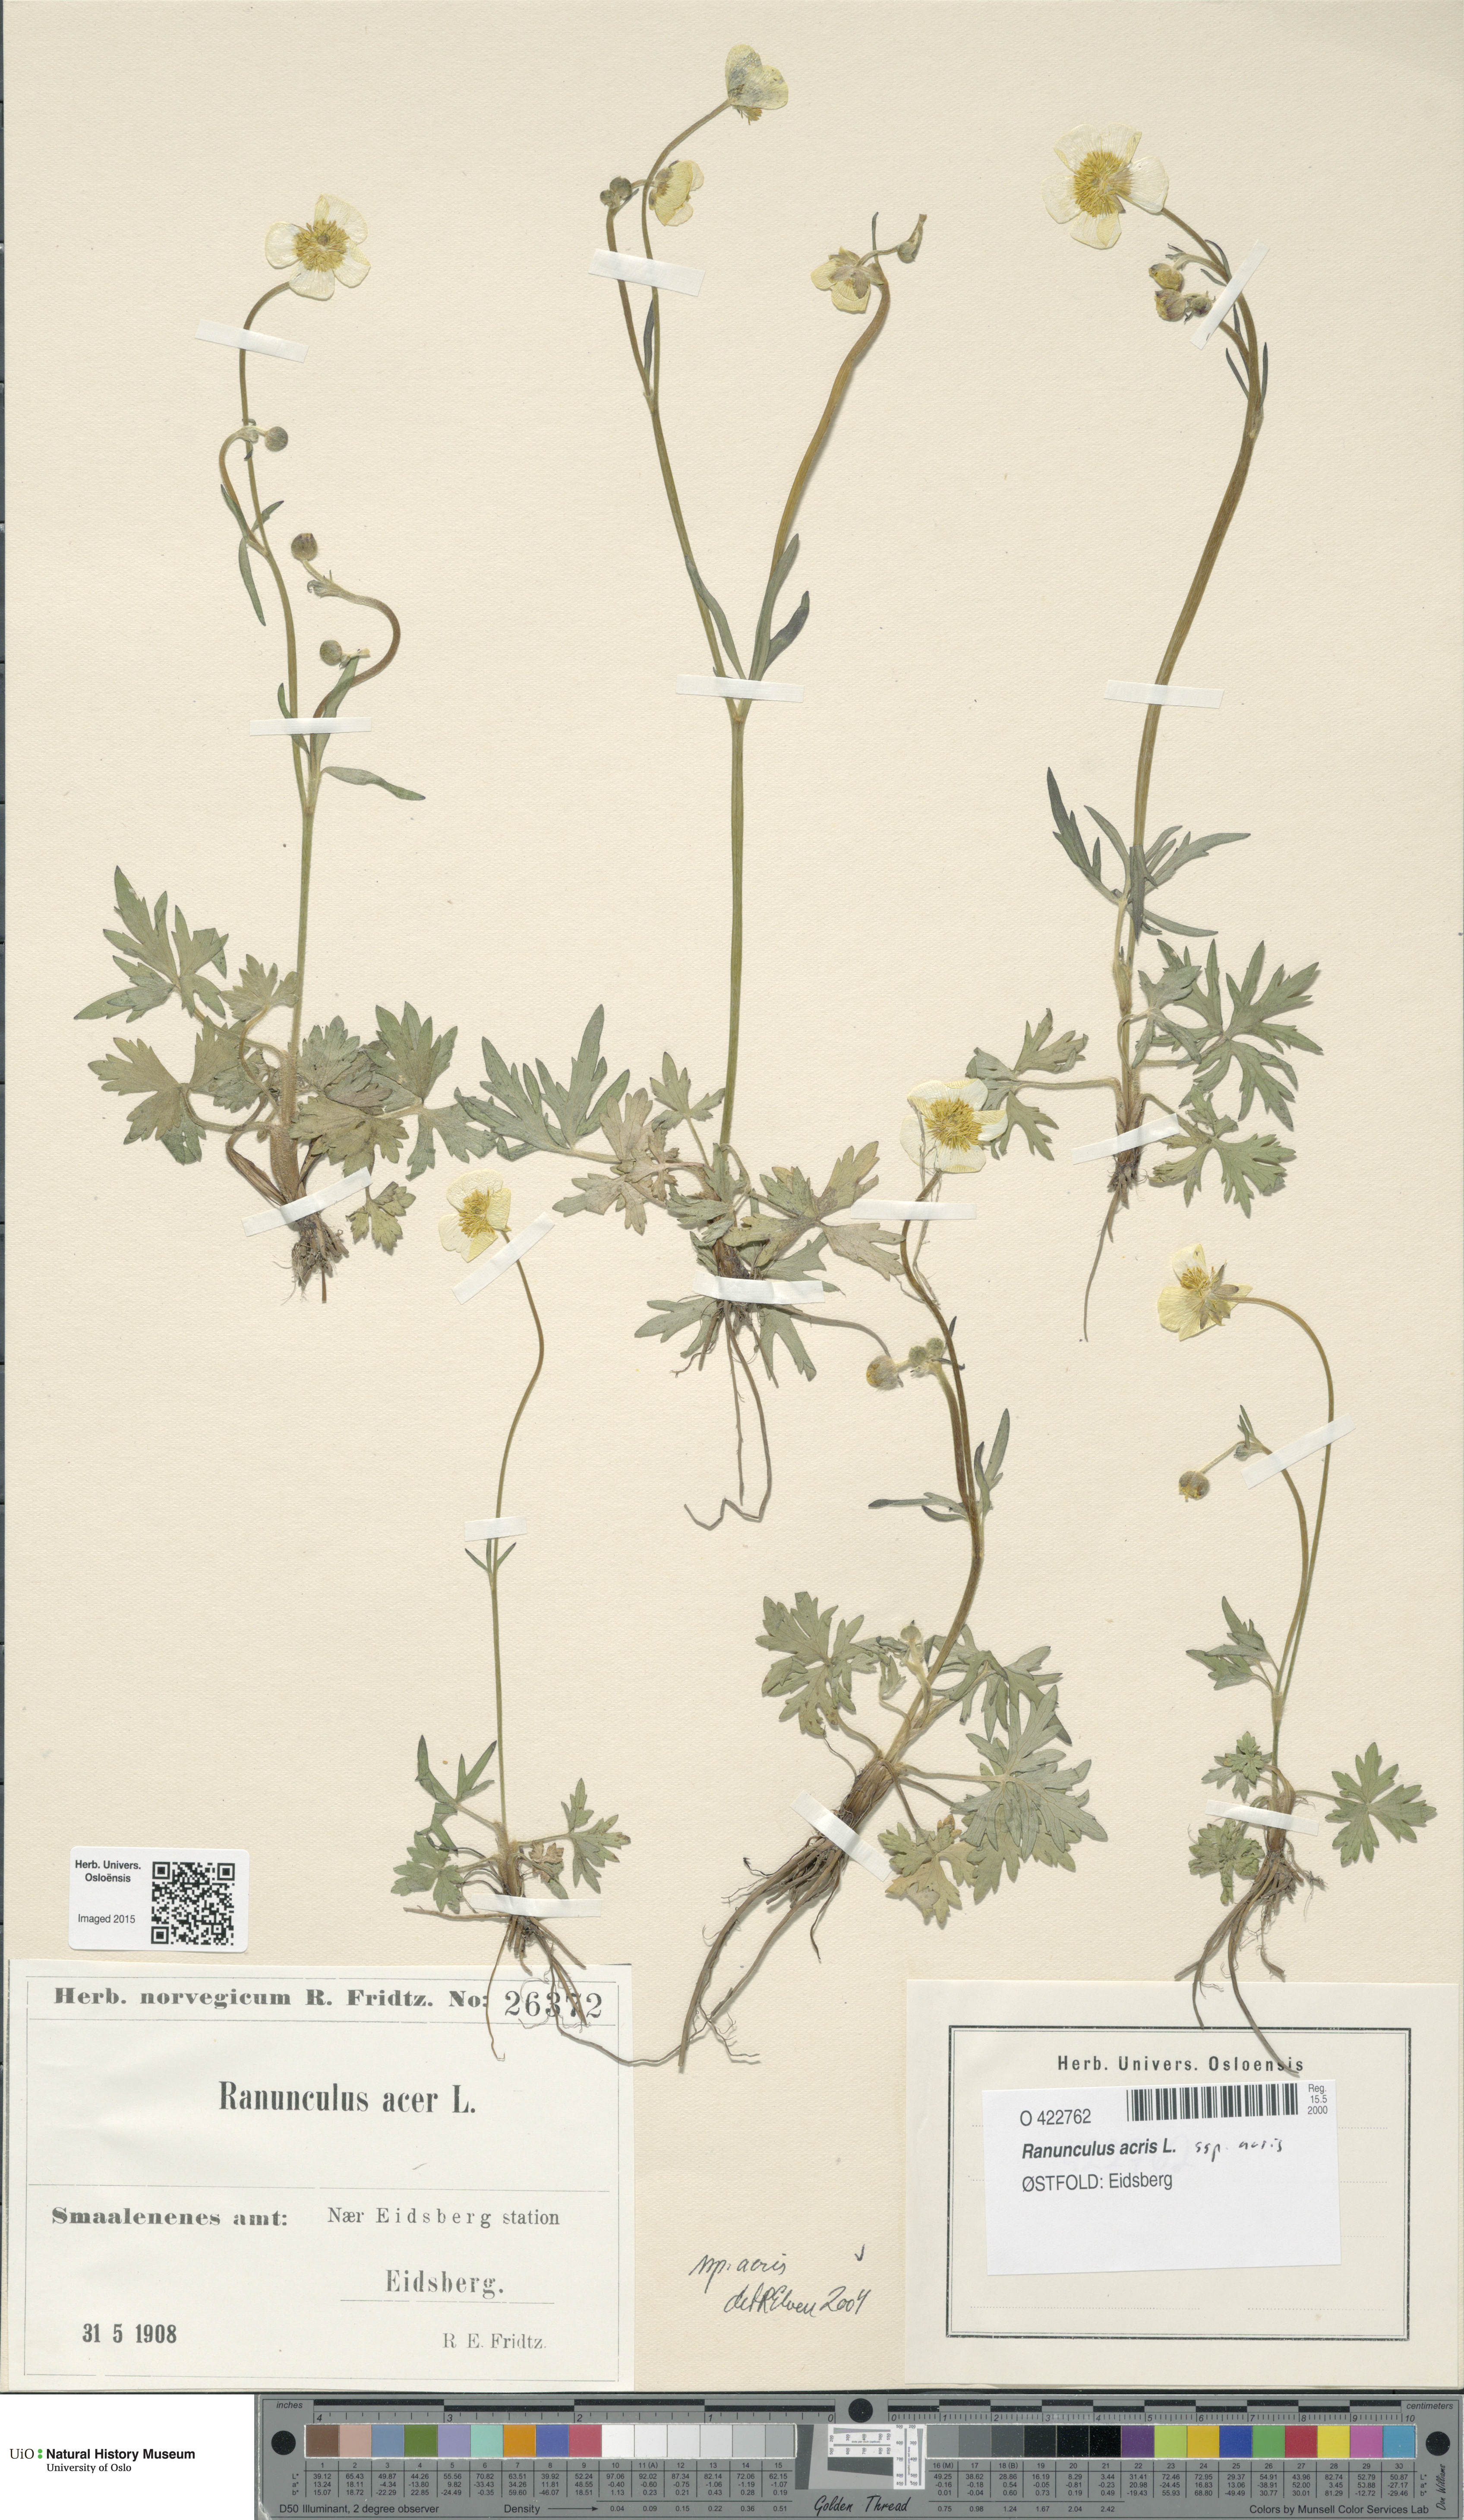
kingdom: Plantae
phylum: Tracheophyta
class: Magnoliopsida
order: Ranunculales
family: Ranunculaceae
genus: Ranunculus
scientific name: Ranunculus acris
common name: Meadow buttercup
